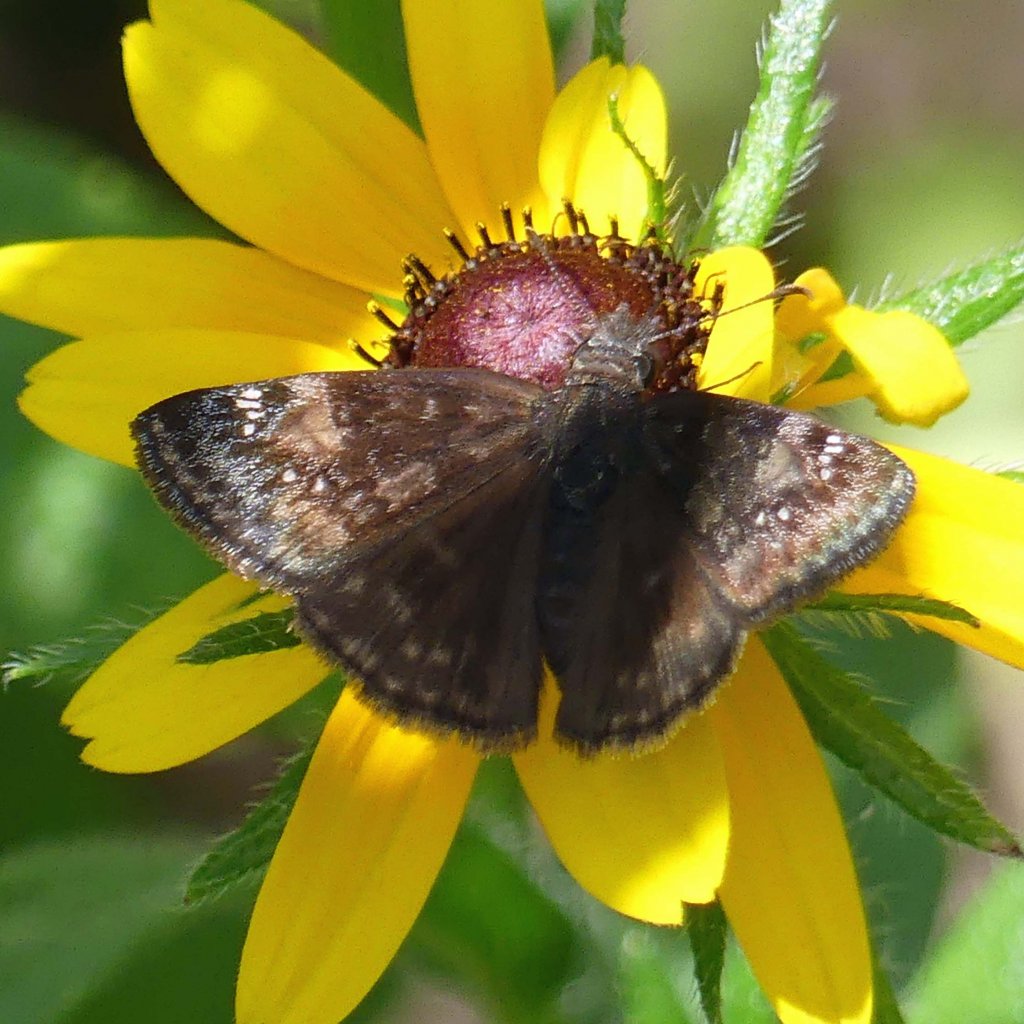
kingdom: Animalia
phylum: Arthropoda
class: Insecta
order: Lepidoptera
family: Hesperiidae
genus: Gesta
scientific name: Gesta
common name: Wild Indigo Duskywing
